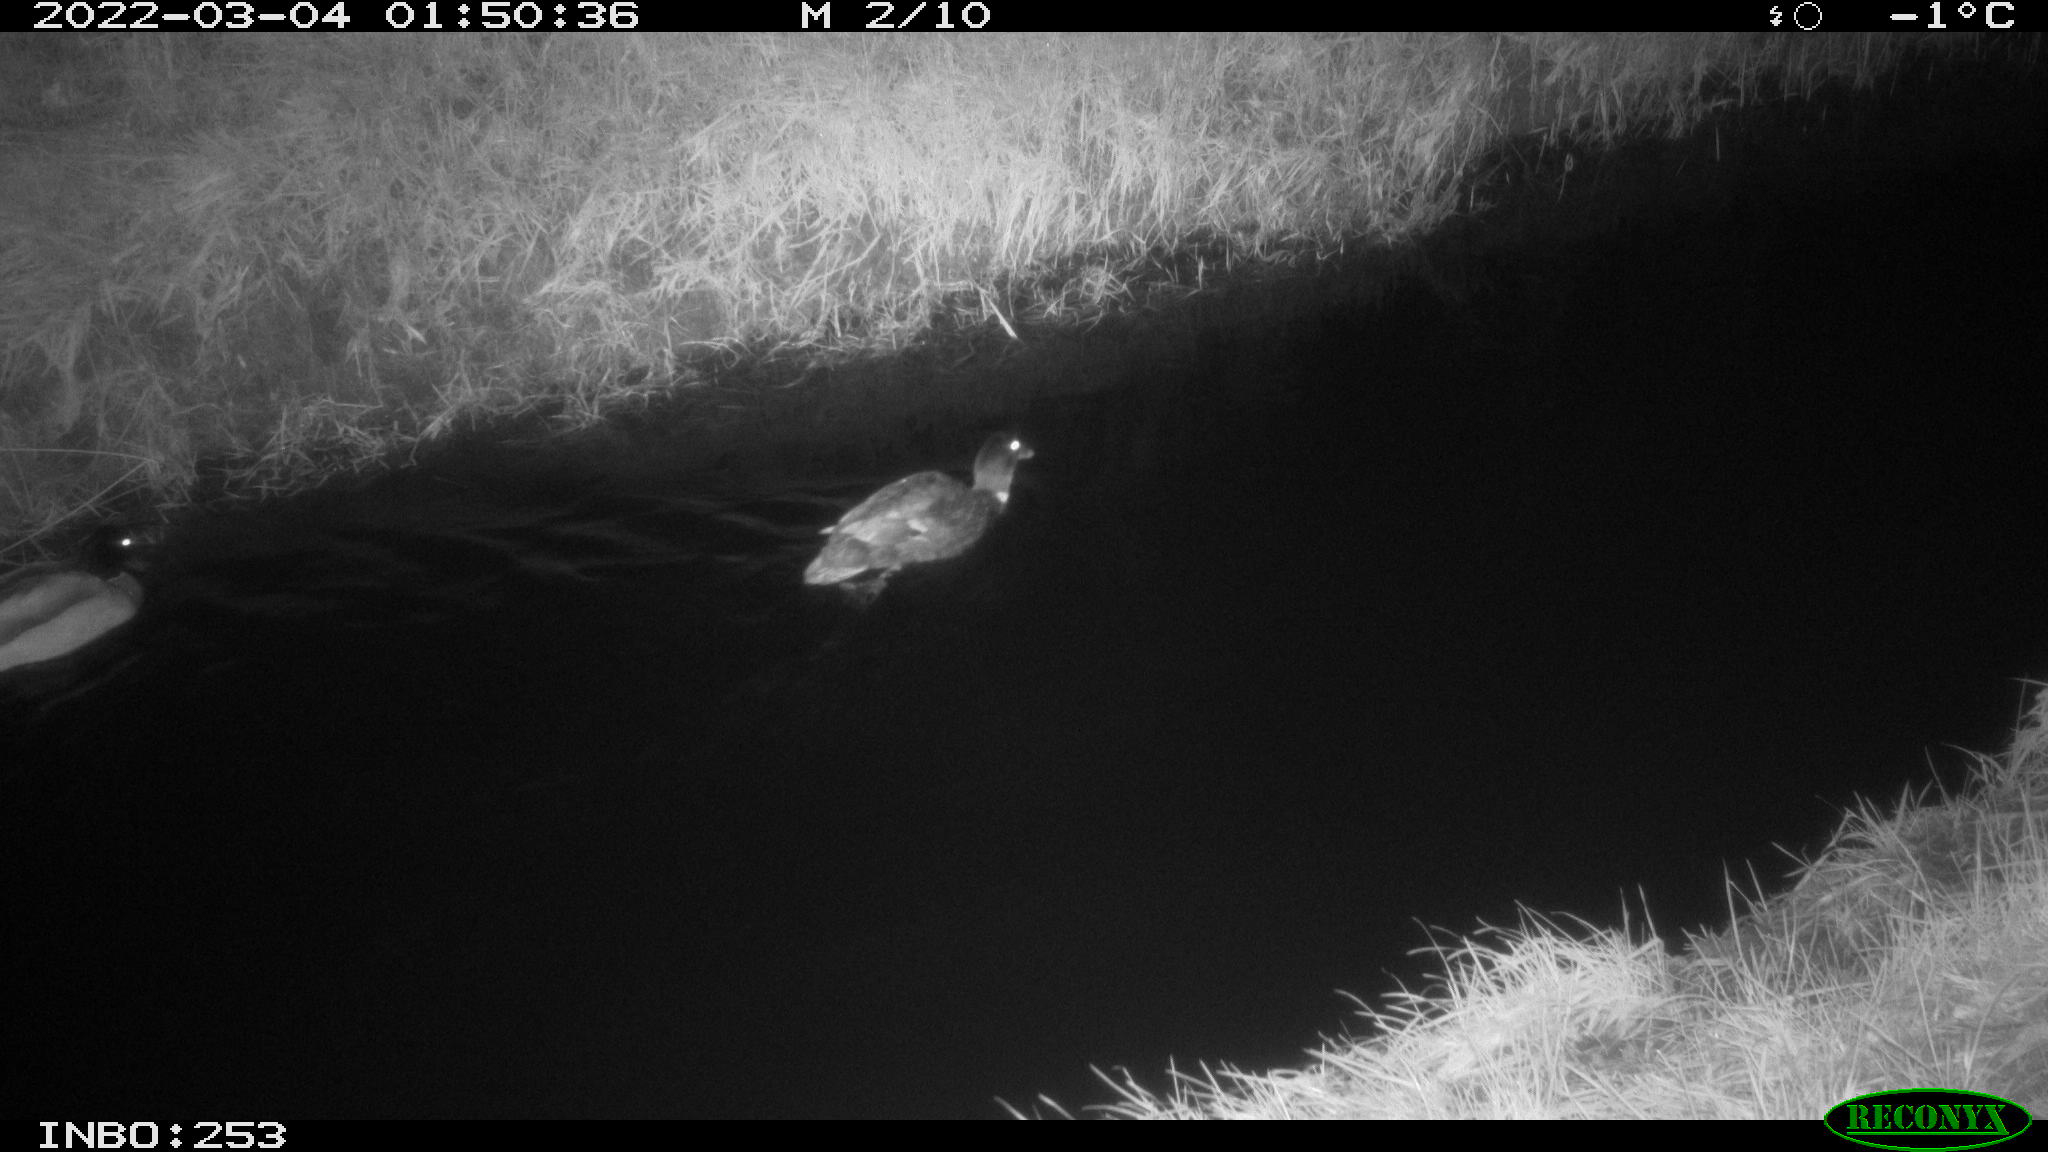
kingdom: Animalia
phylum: Chordata
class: Aves
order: Anseriformes
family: Anatidae
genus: Anas
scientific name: Anas platyrhynchos
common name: Mallard
